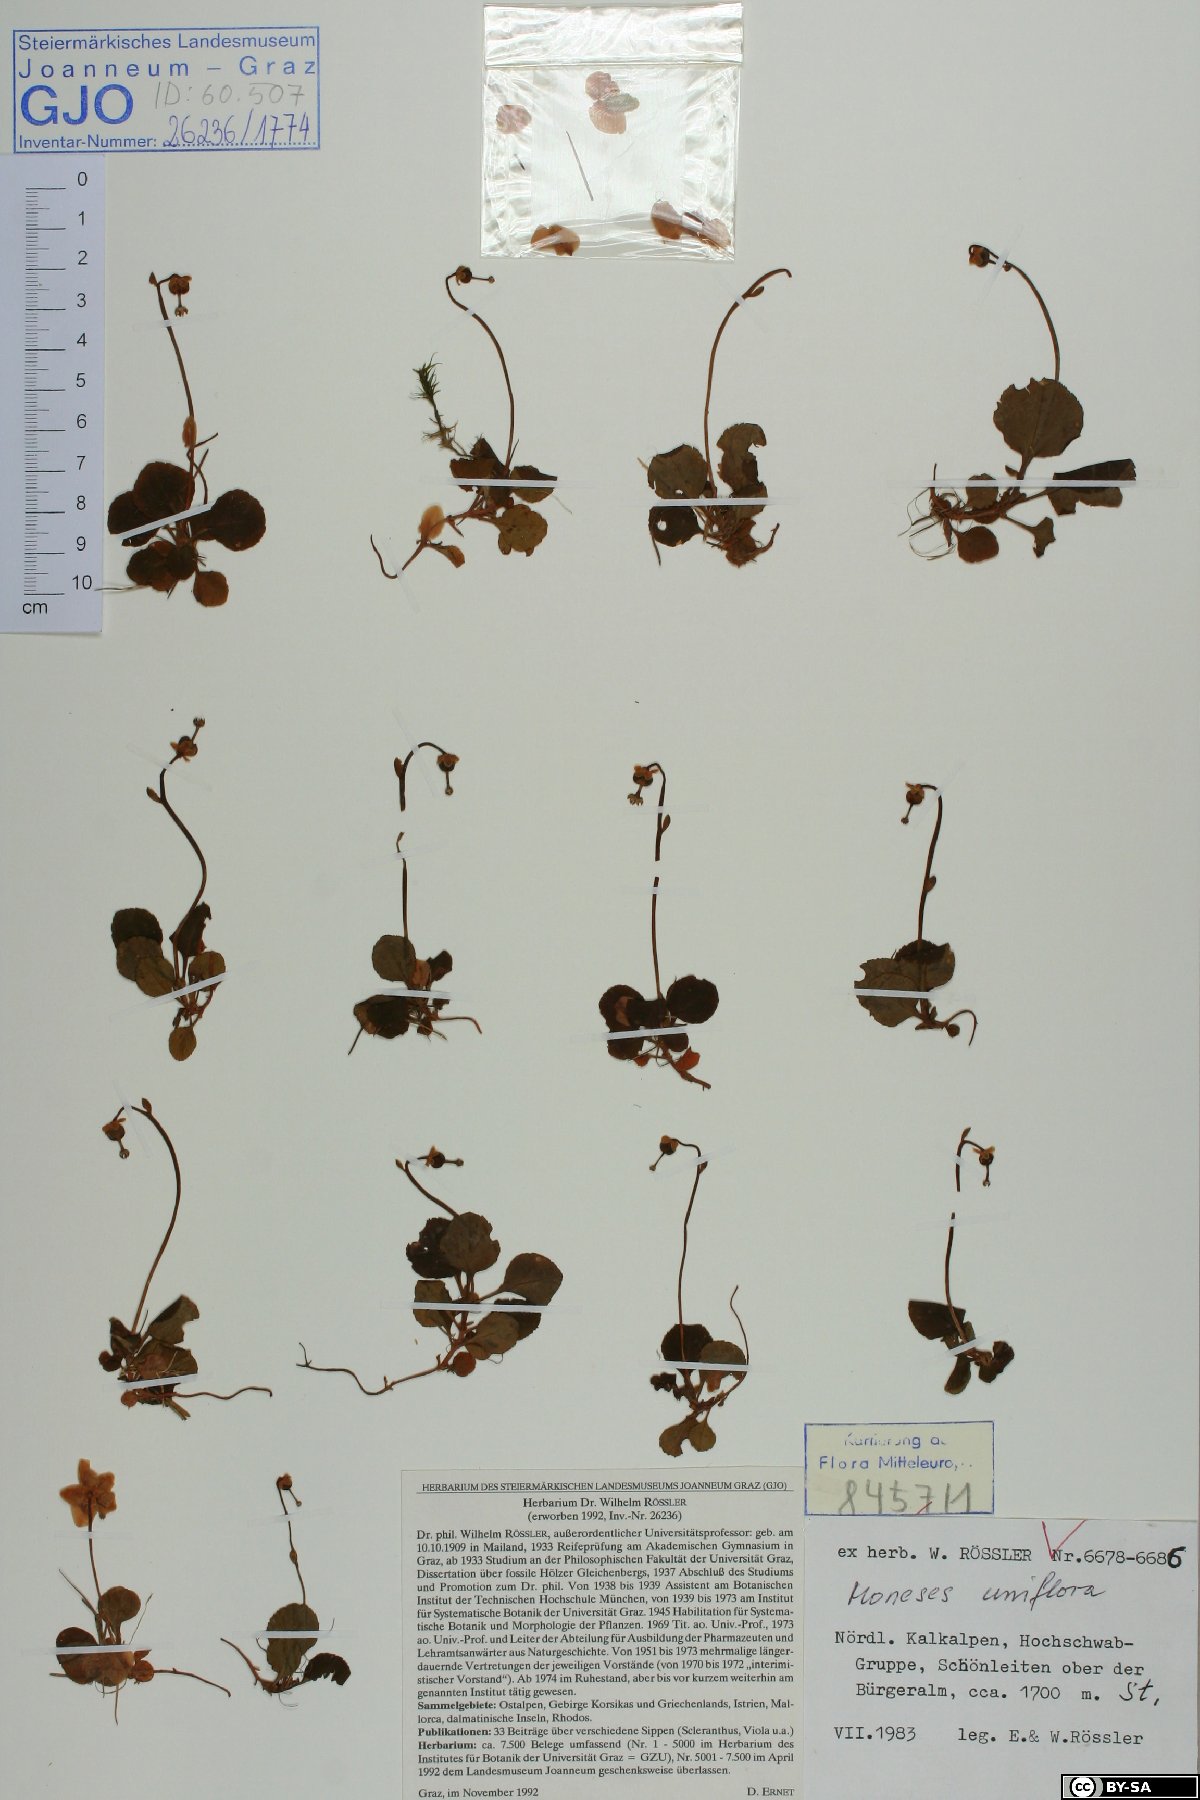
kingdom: Plantae
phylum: Tracheophyta
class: Magnoliopsida
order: Ericales
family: Ericaceae
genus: Moneses
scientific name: Moneses uniflora
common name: One-flowered wintergreen
